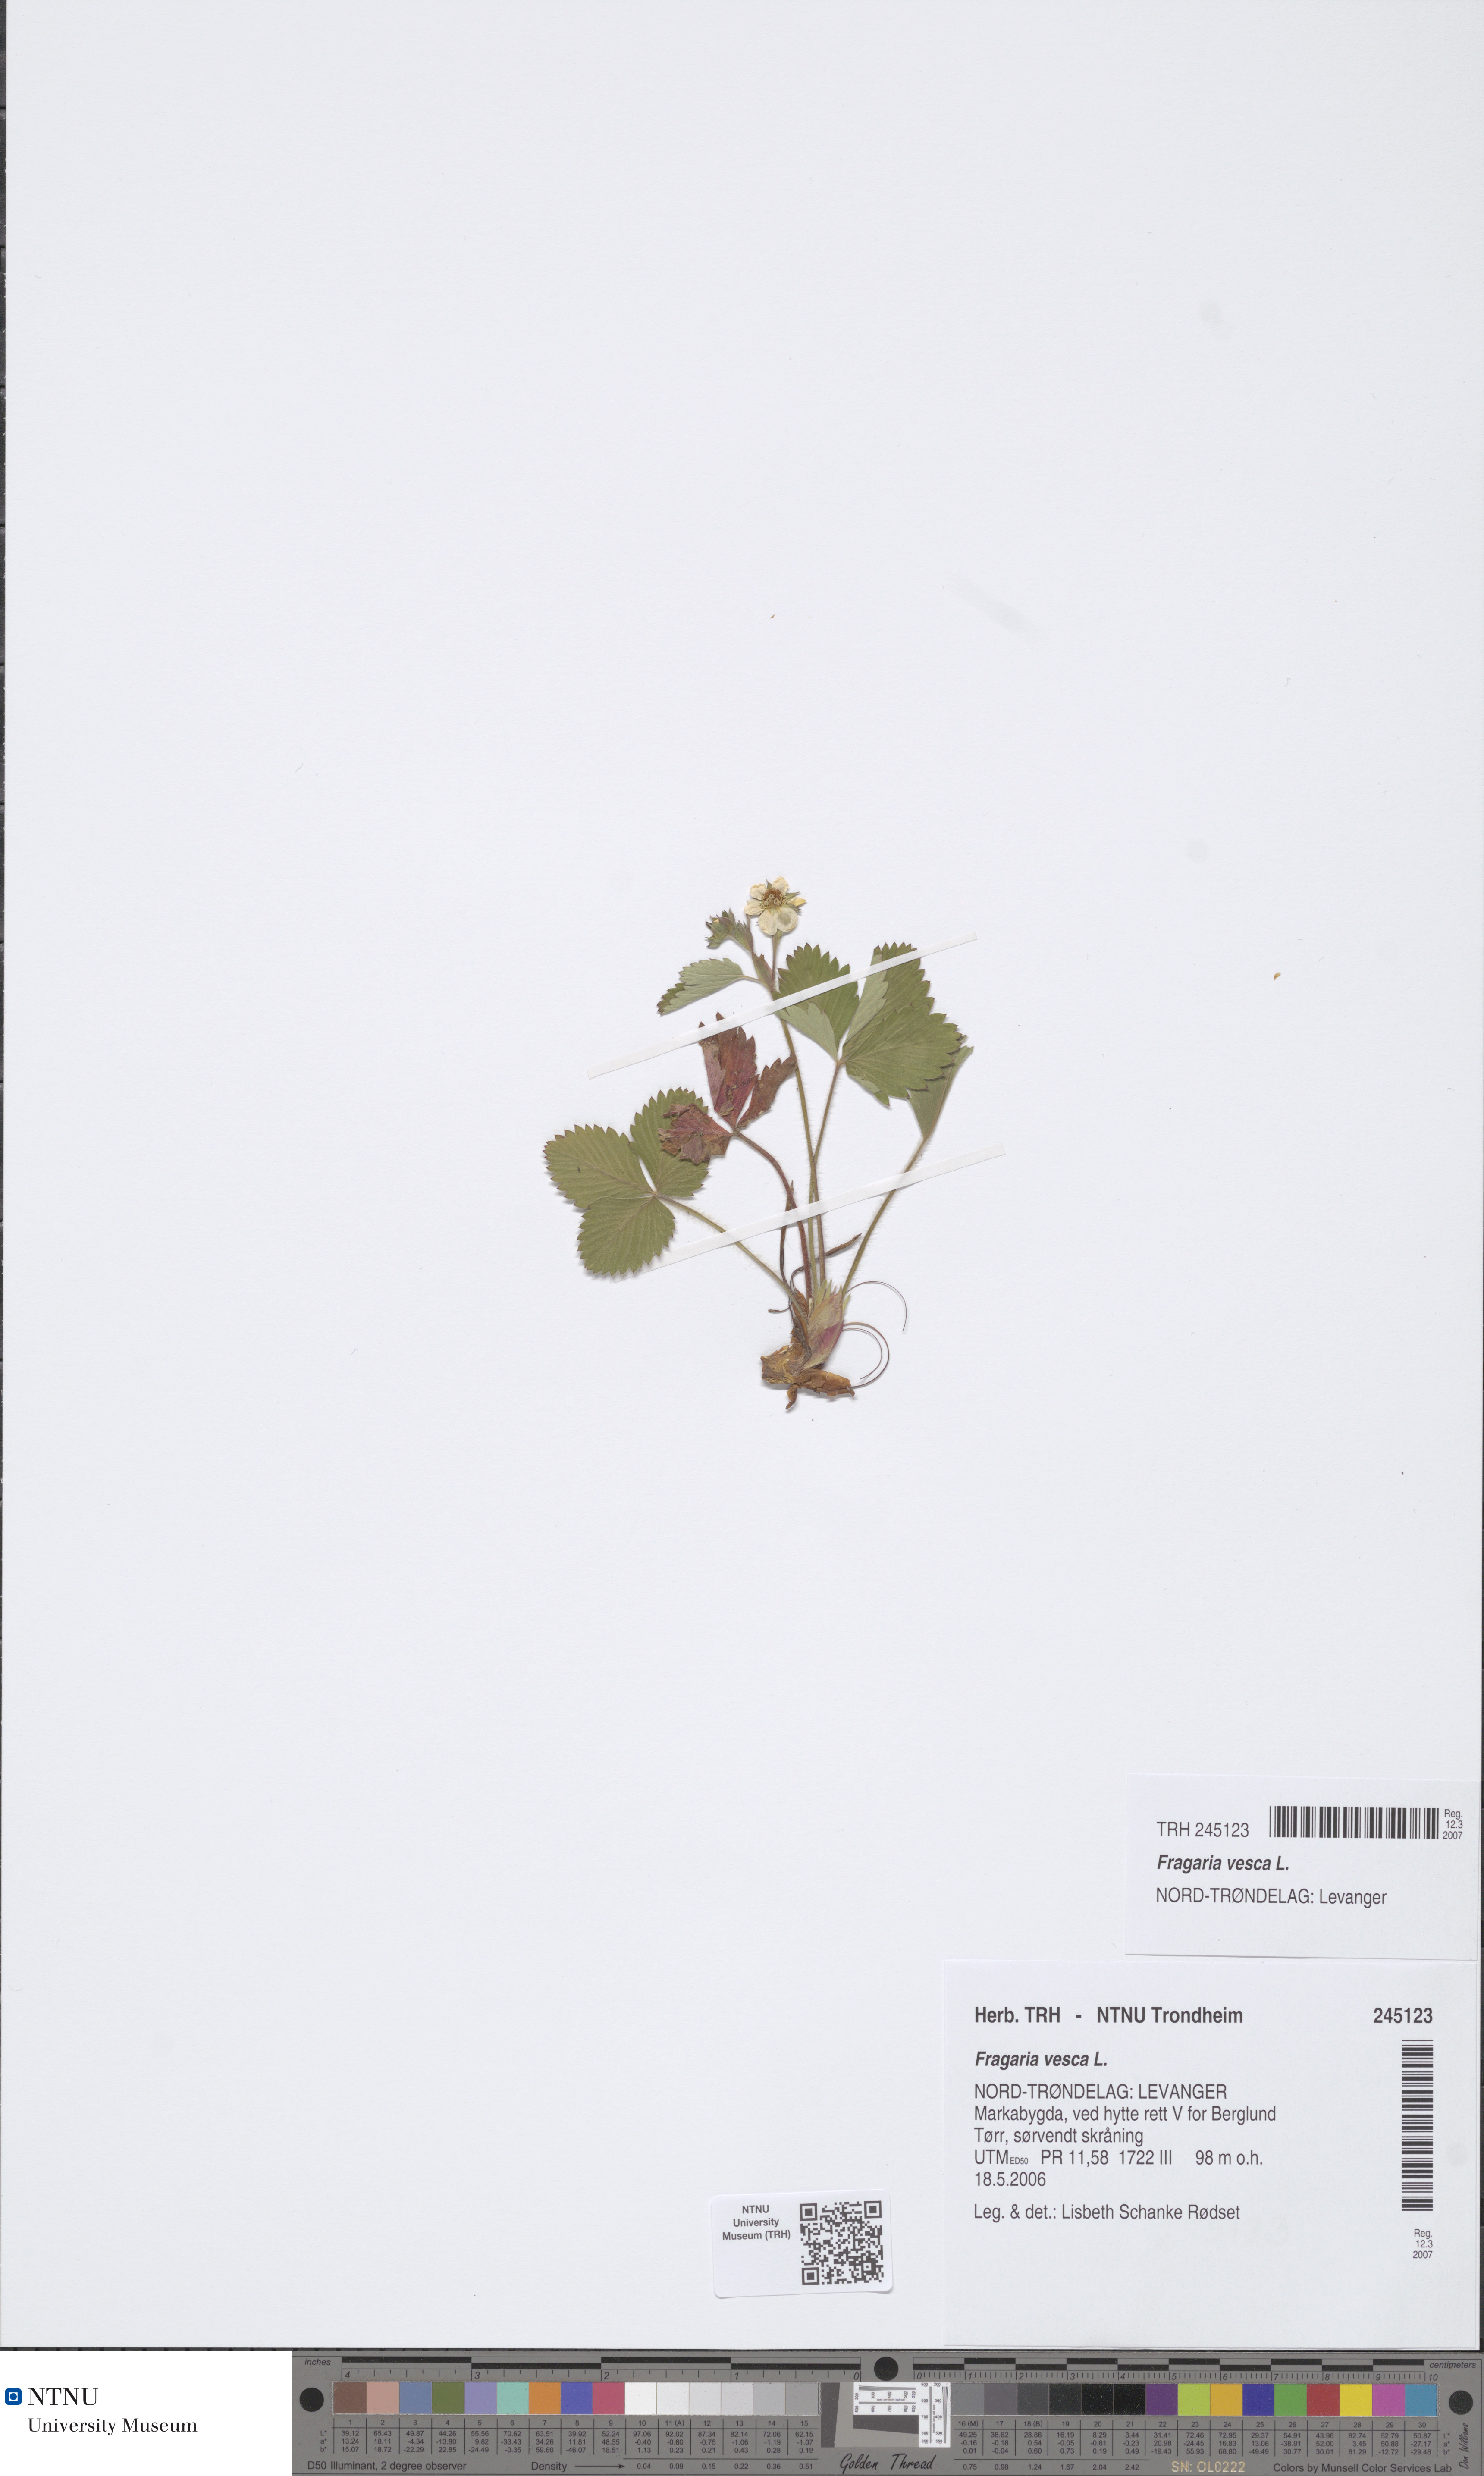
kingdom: Plantae
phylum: Tracheophyta
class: Magnoliopsida
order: Rosales
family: Rosaceae
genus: Fragaria
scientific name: Fragaria vesca
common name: Wild strawberry
